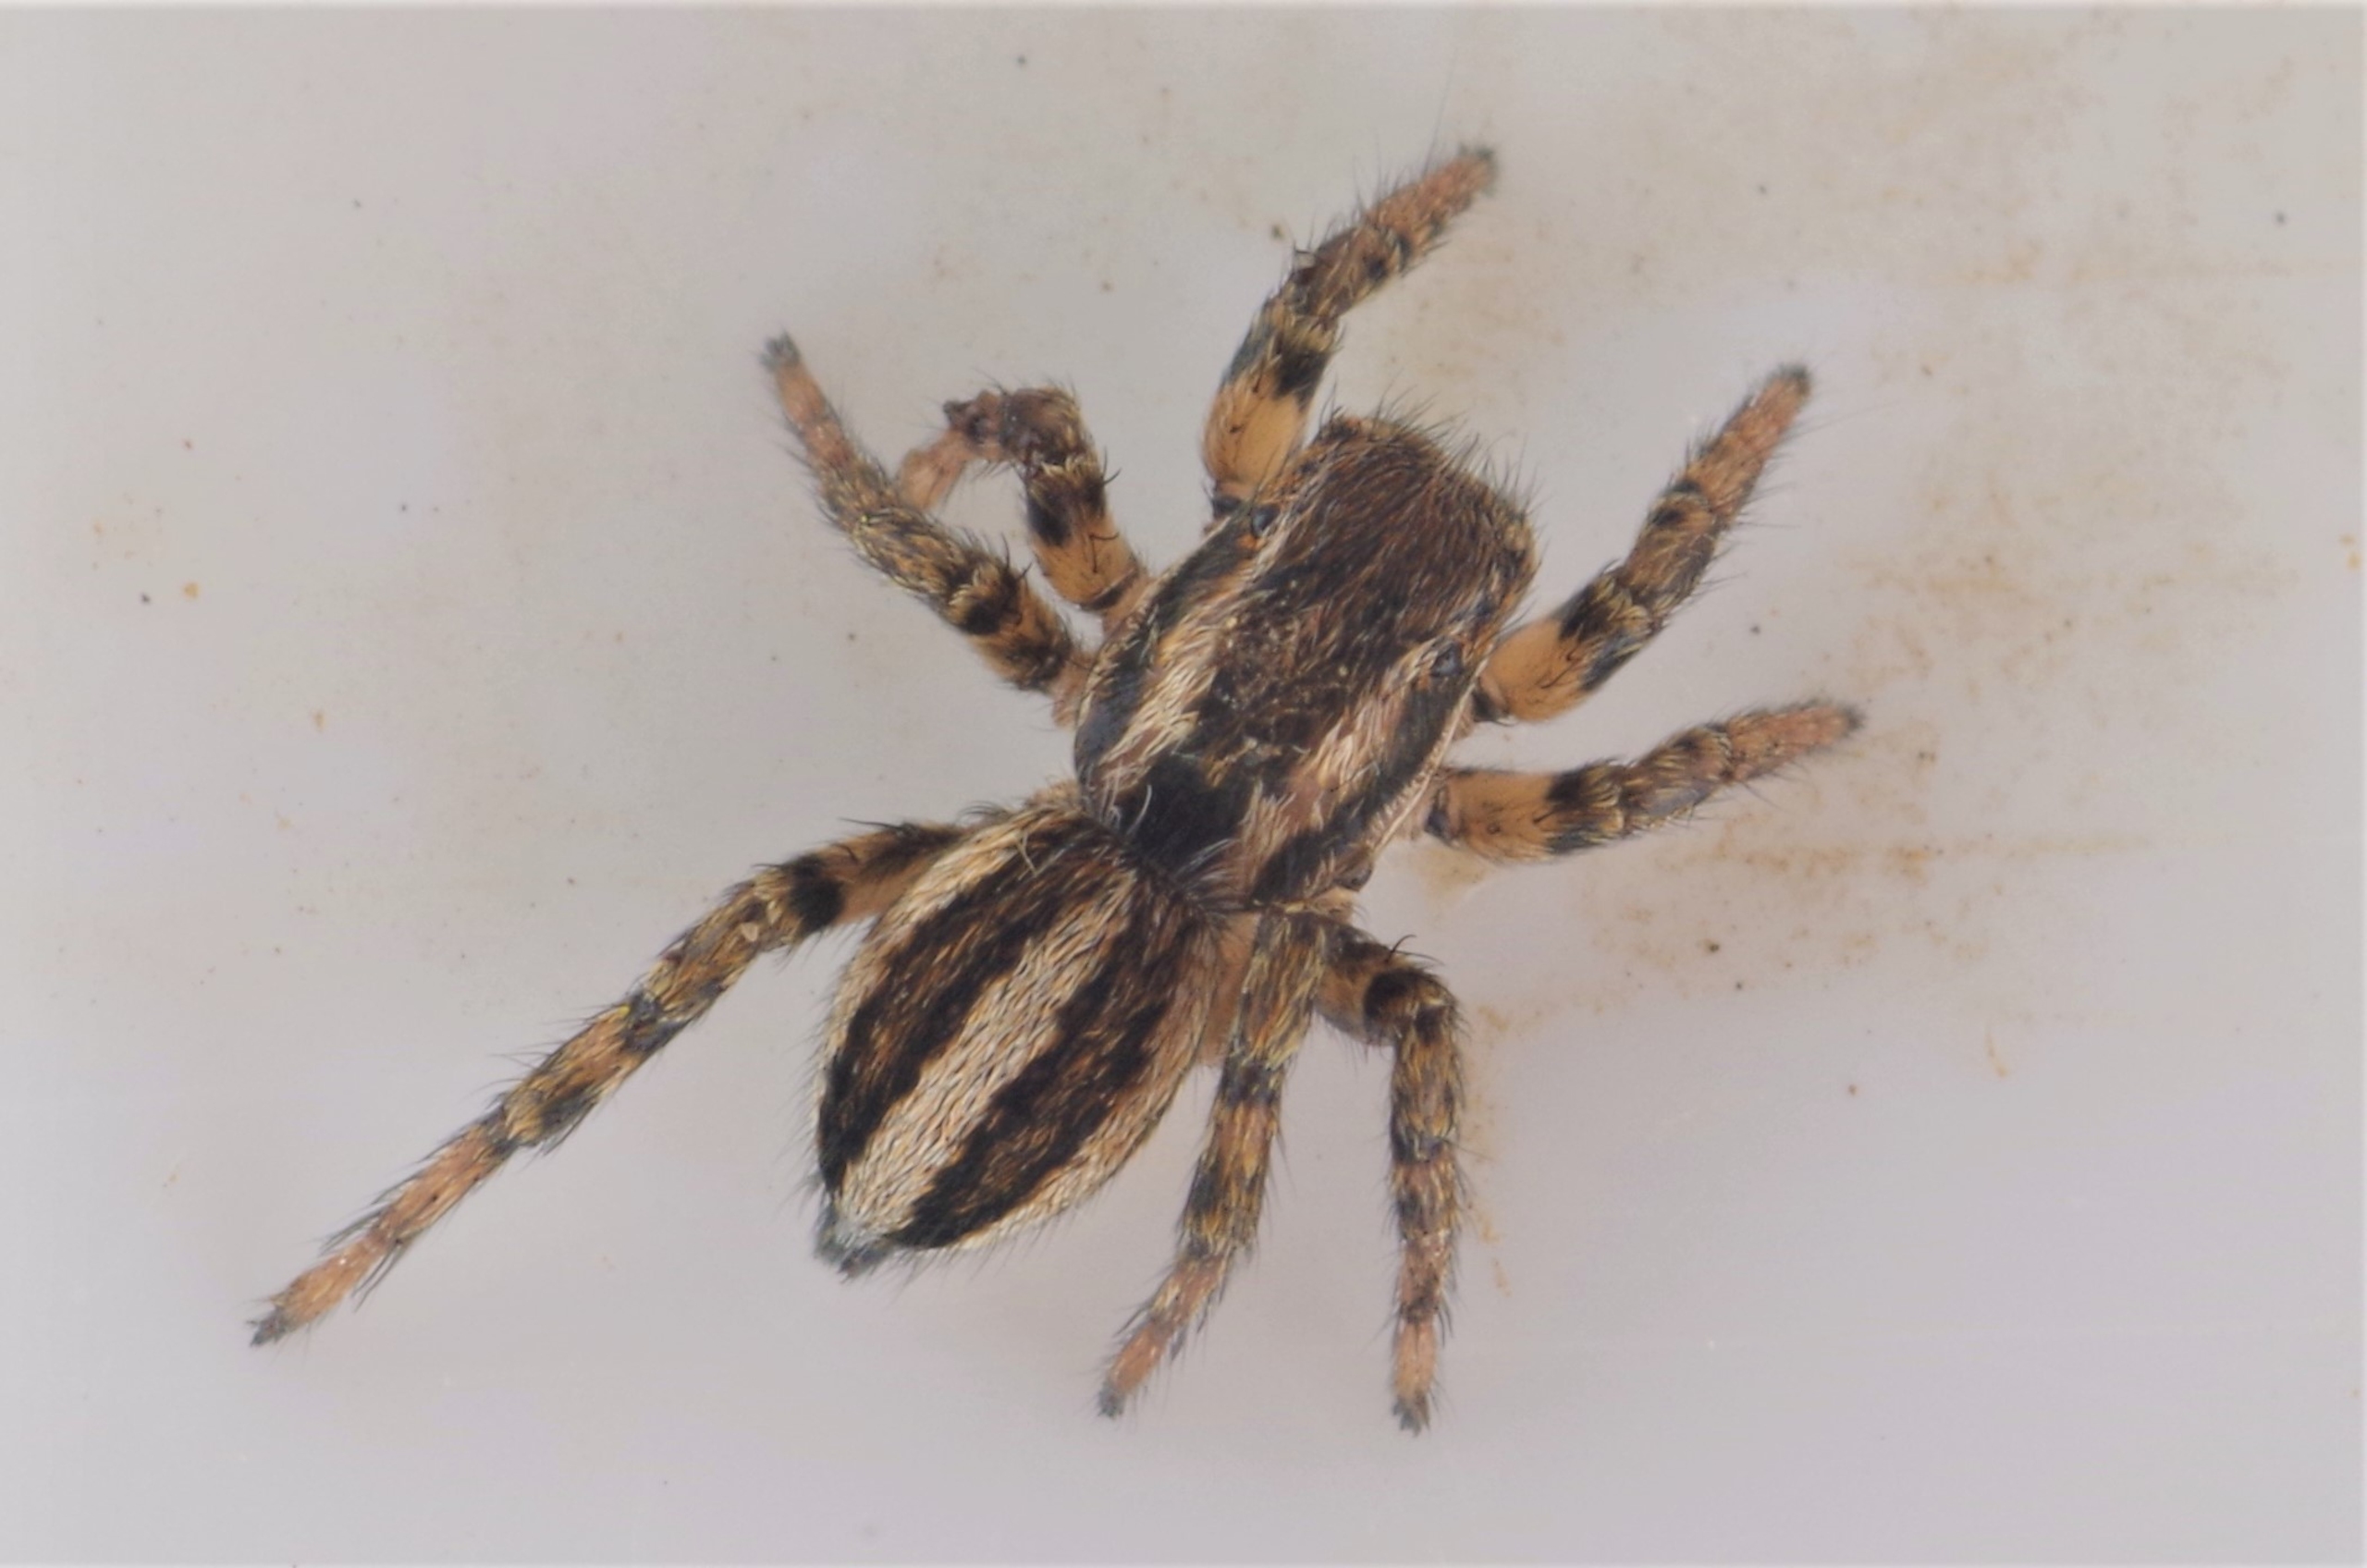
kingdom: Animalia
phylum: Arthropoda
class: Arachnida
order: Araneae
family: Salticidae
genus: Phlegra
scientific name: Phlegra fasciata
